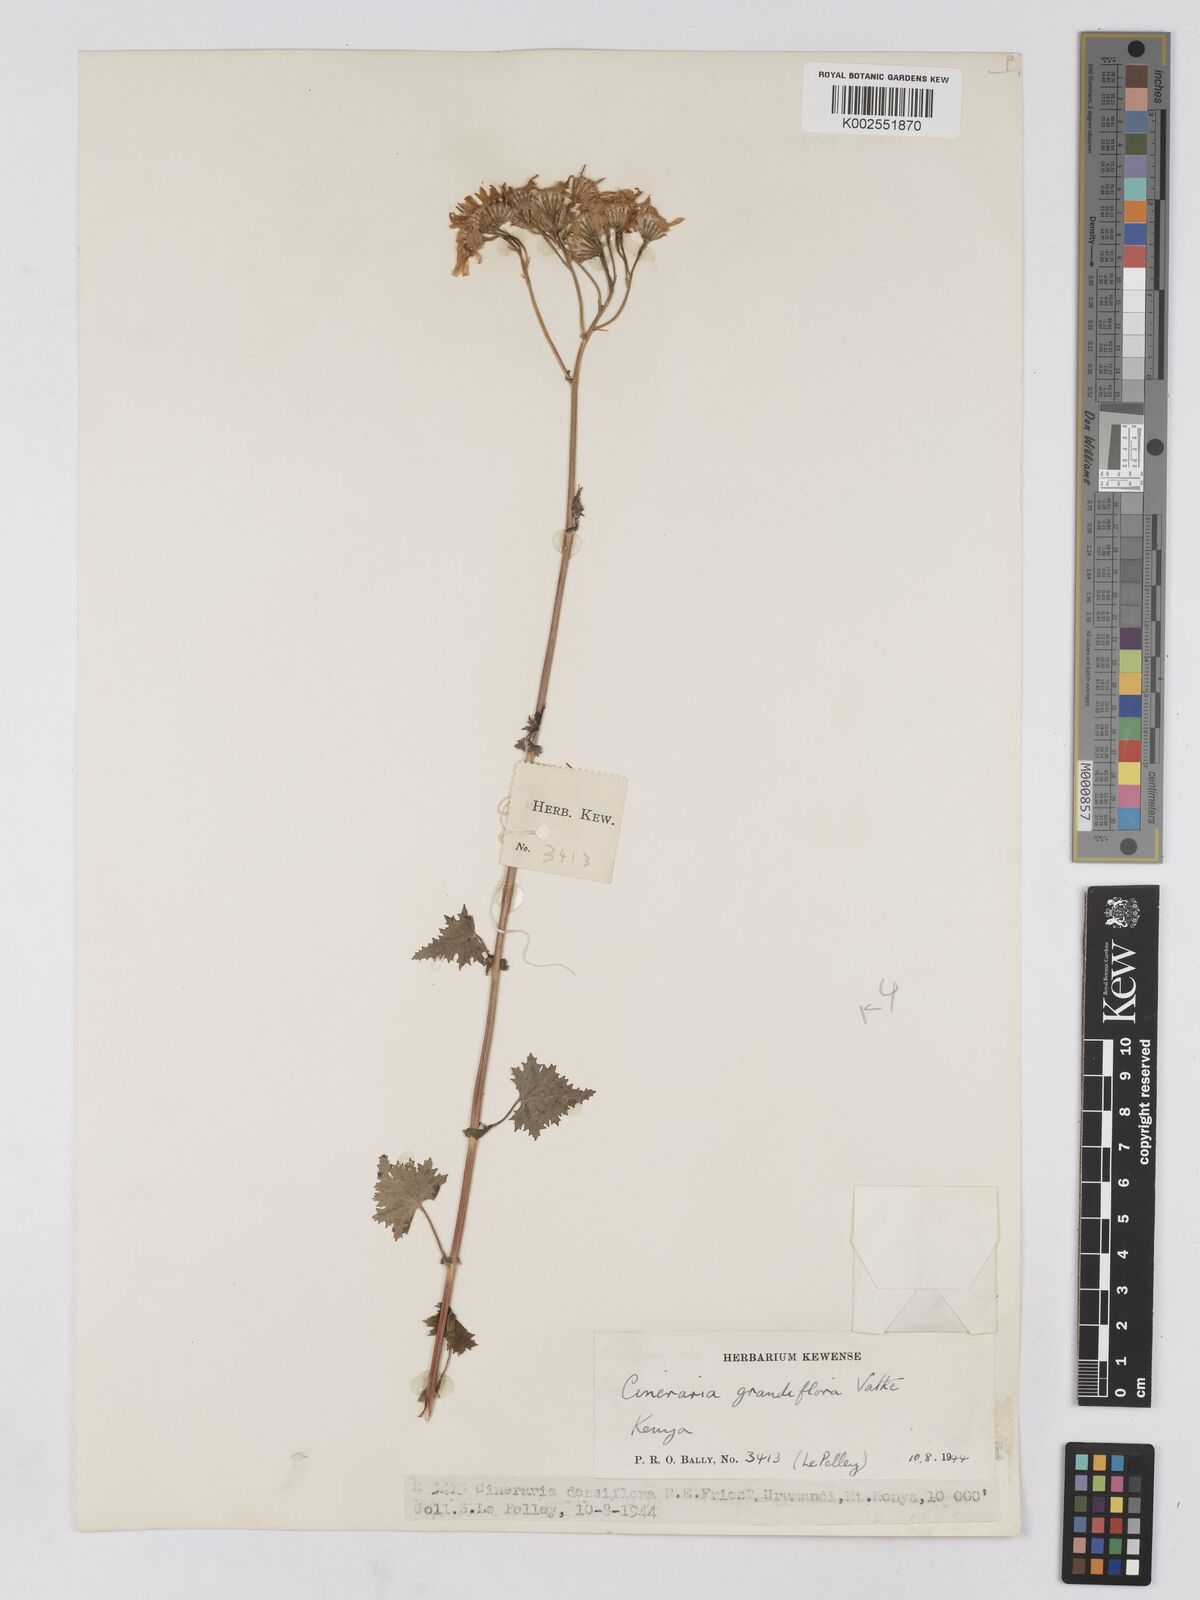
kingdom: Plantae
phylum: Tracheophyta
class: Magnoliopsida
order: Asterales
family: Asteraceae
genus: Cineraria
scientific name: Cineraria deltoidea
